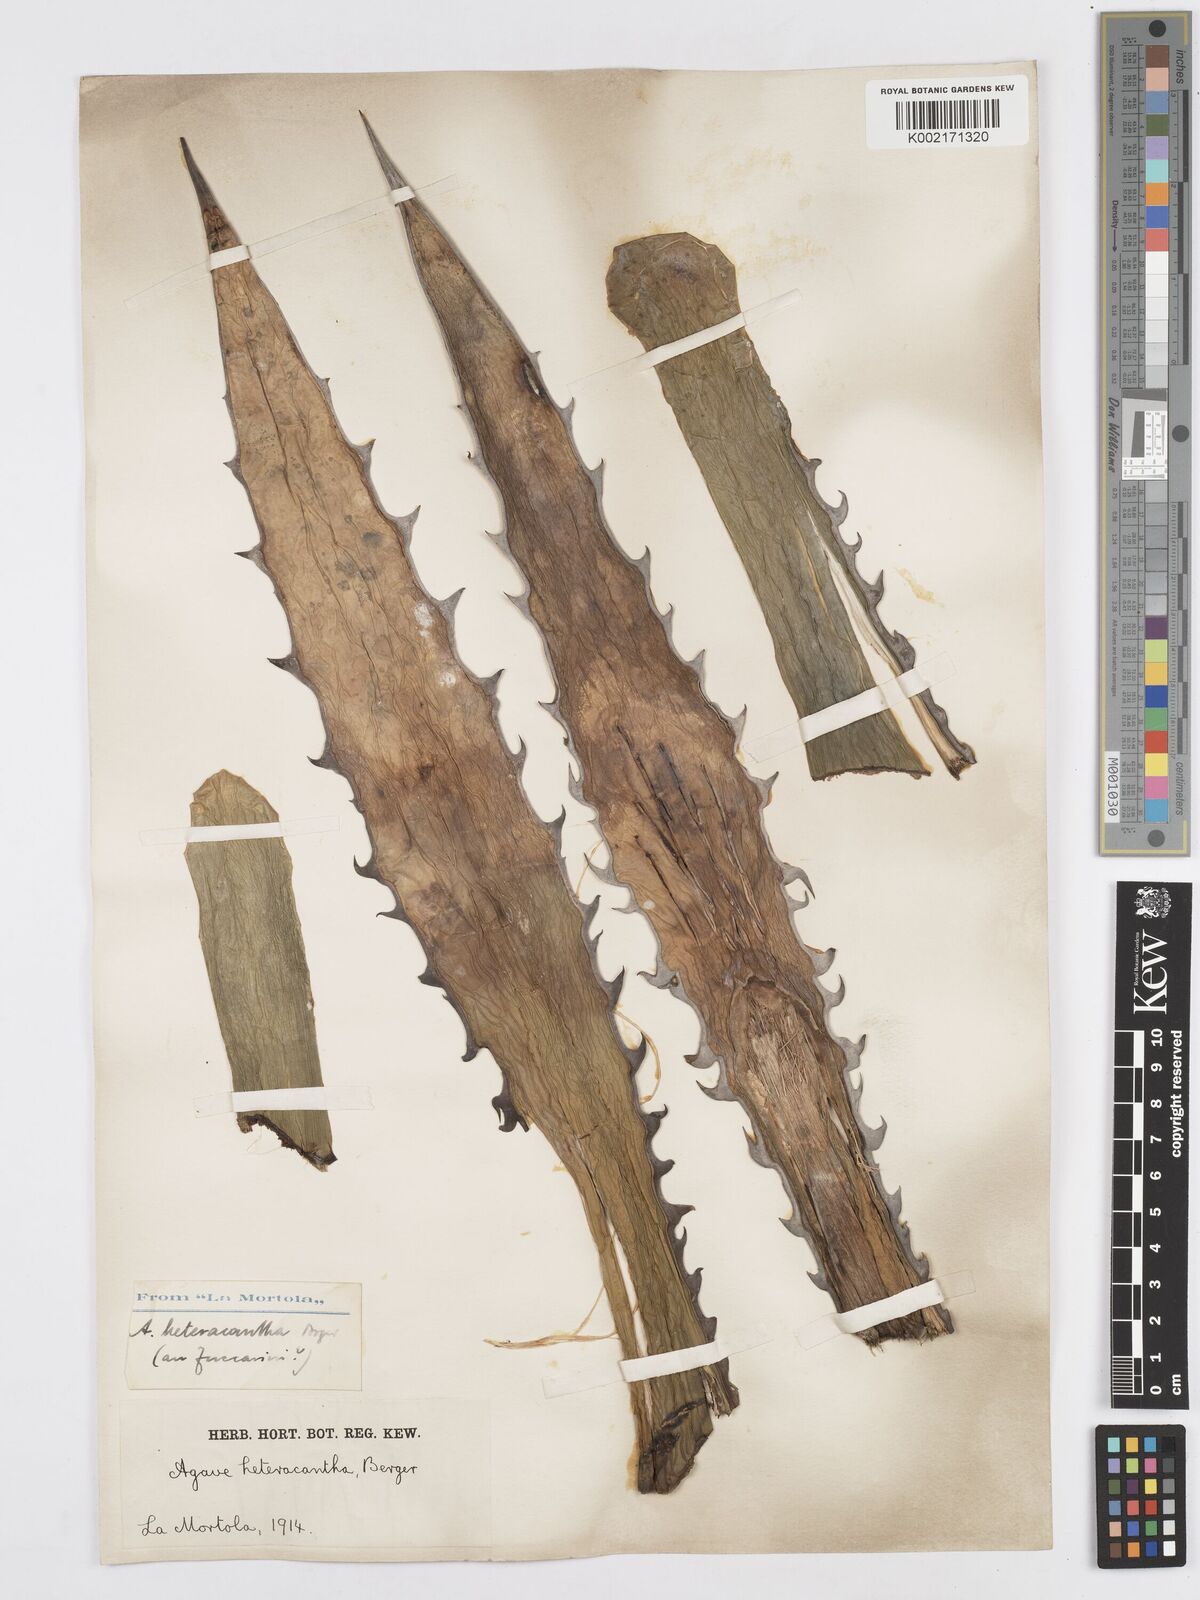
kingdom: Plantae
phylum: Tracheophyta
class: Liliopsida
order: Asparagales
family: Asparagaceae
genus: Agave
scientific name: Agave lechuguilla
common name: Lecheguilla agave
